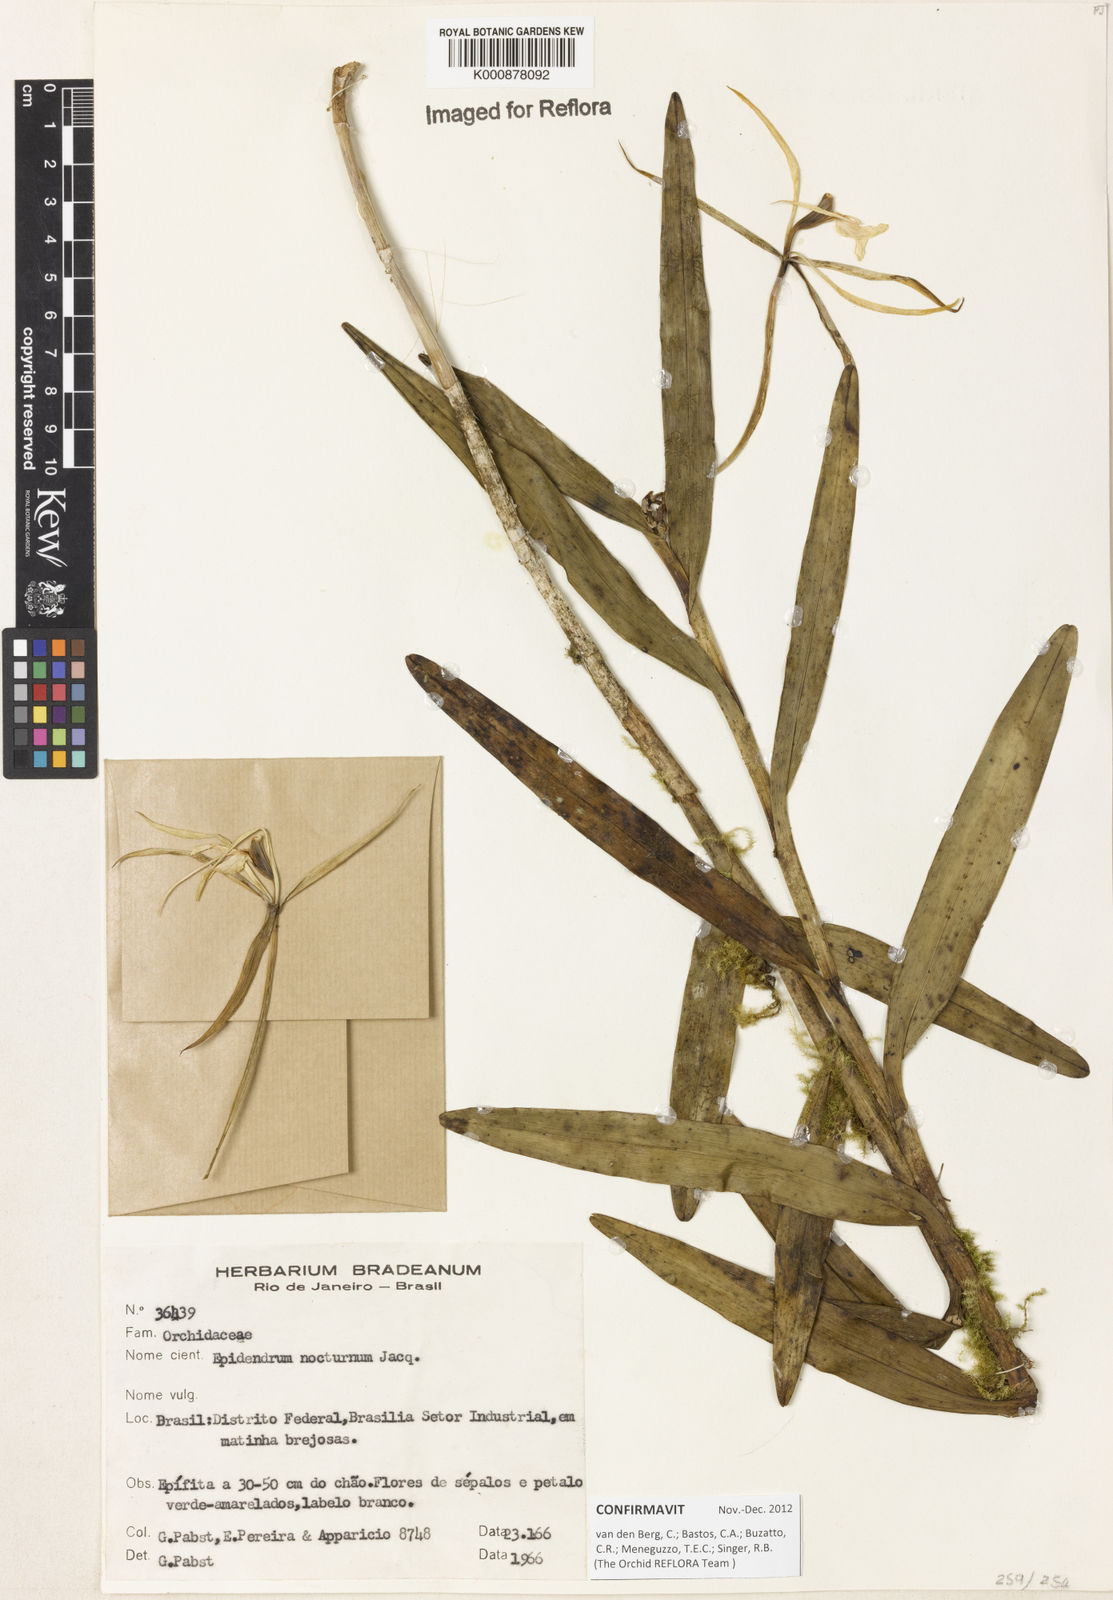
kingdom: Plantae
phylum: Tracheophyta
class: Liliopsida
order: Asparagales
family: Orchidaceae
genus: Epidendrum
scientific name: Epidendrum nocturnum
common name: Night scented orchid
